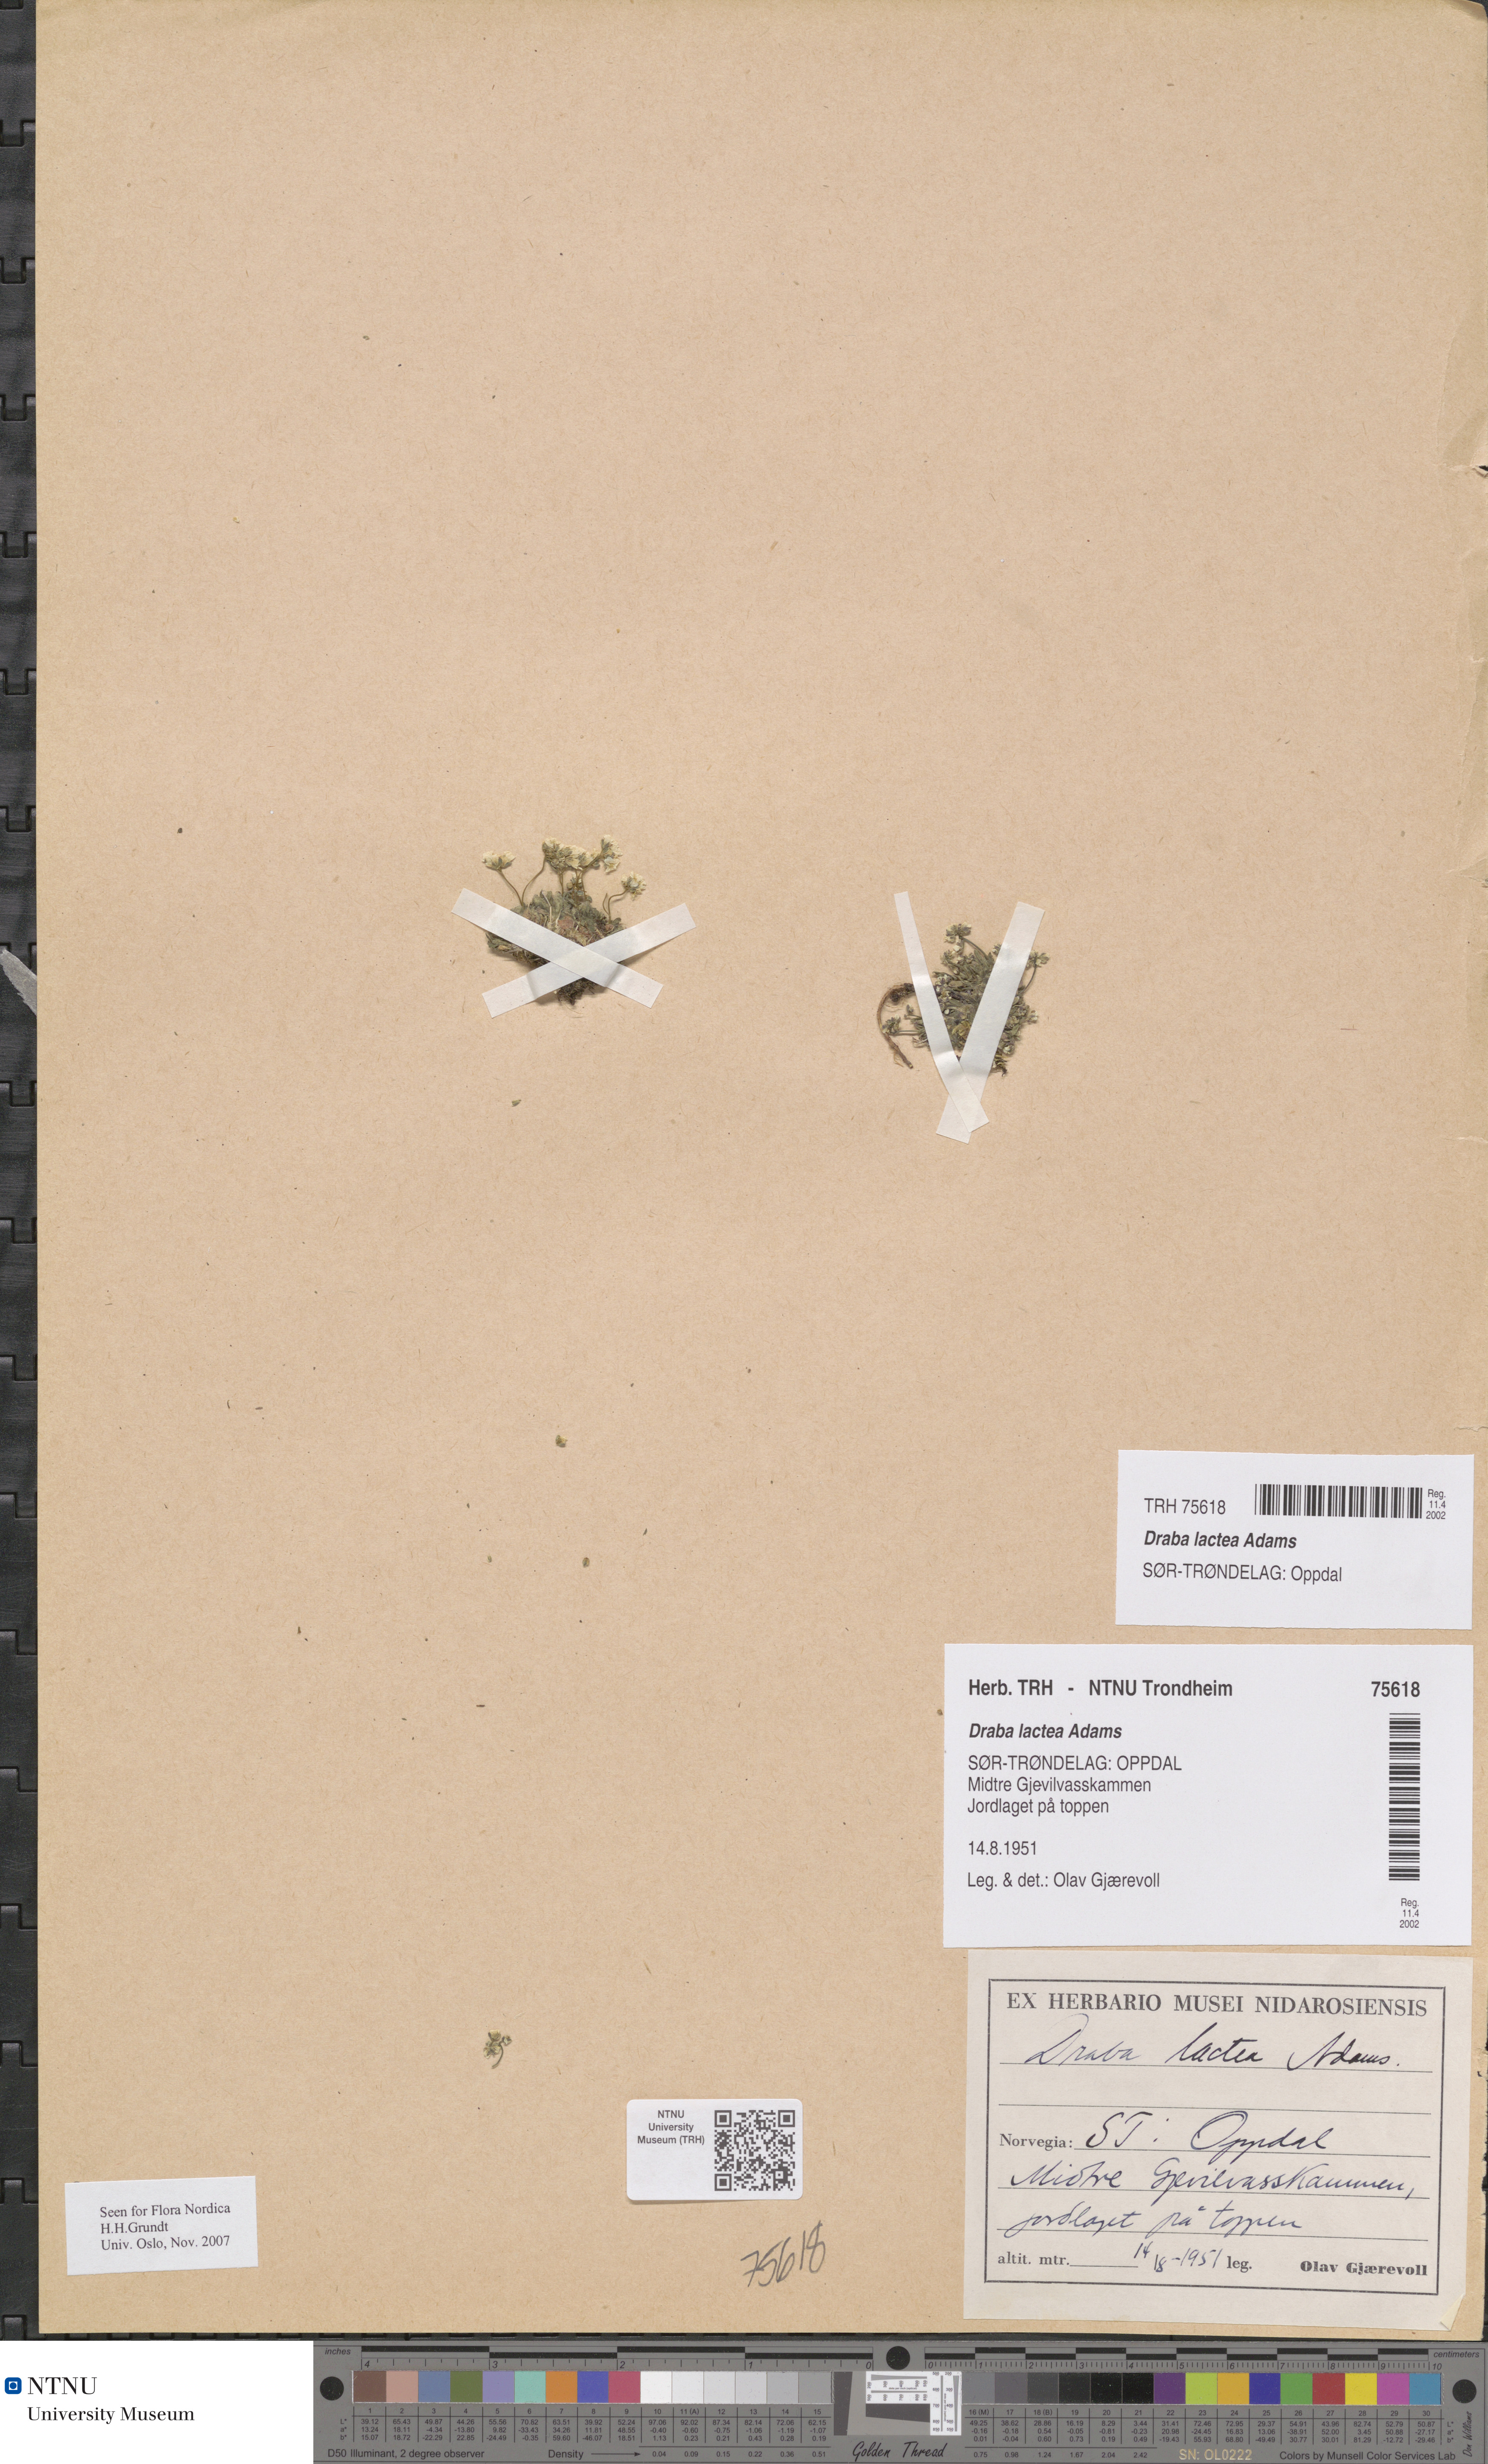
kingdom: Plantae
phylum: Tracheophyta
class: Magnoliopsida
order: Brassicales
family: Brassicaceae
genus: Draba
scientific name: Draba lactea
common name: Milky draba
